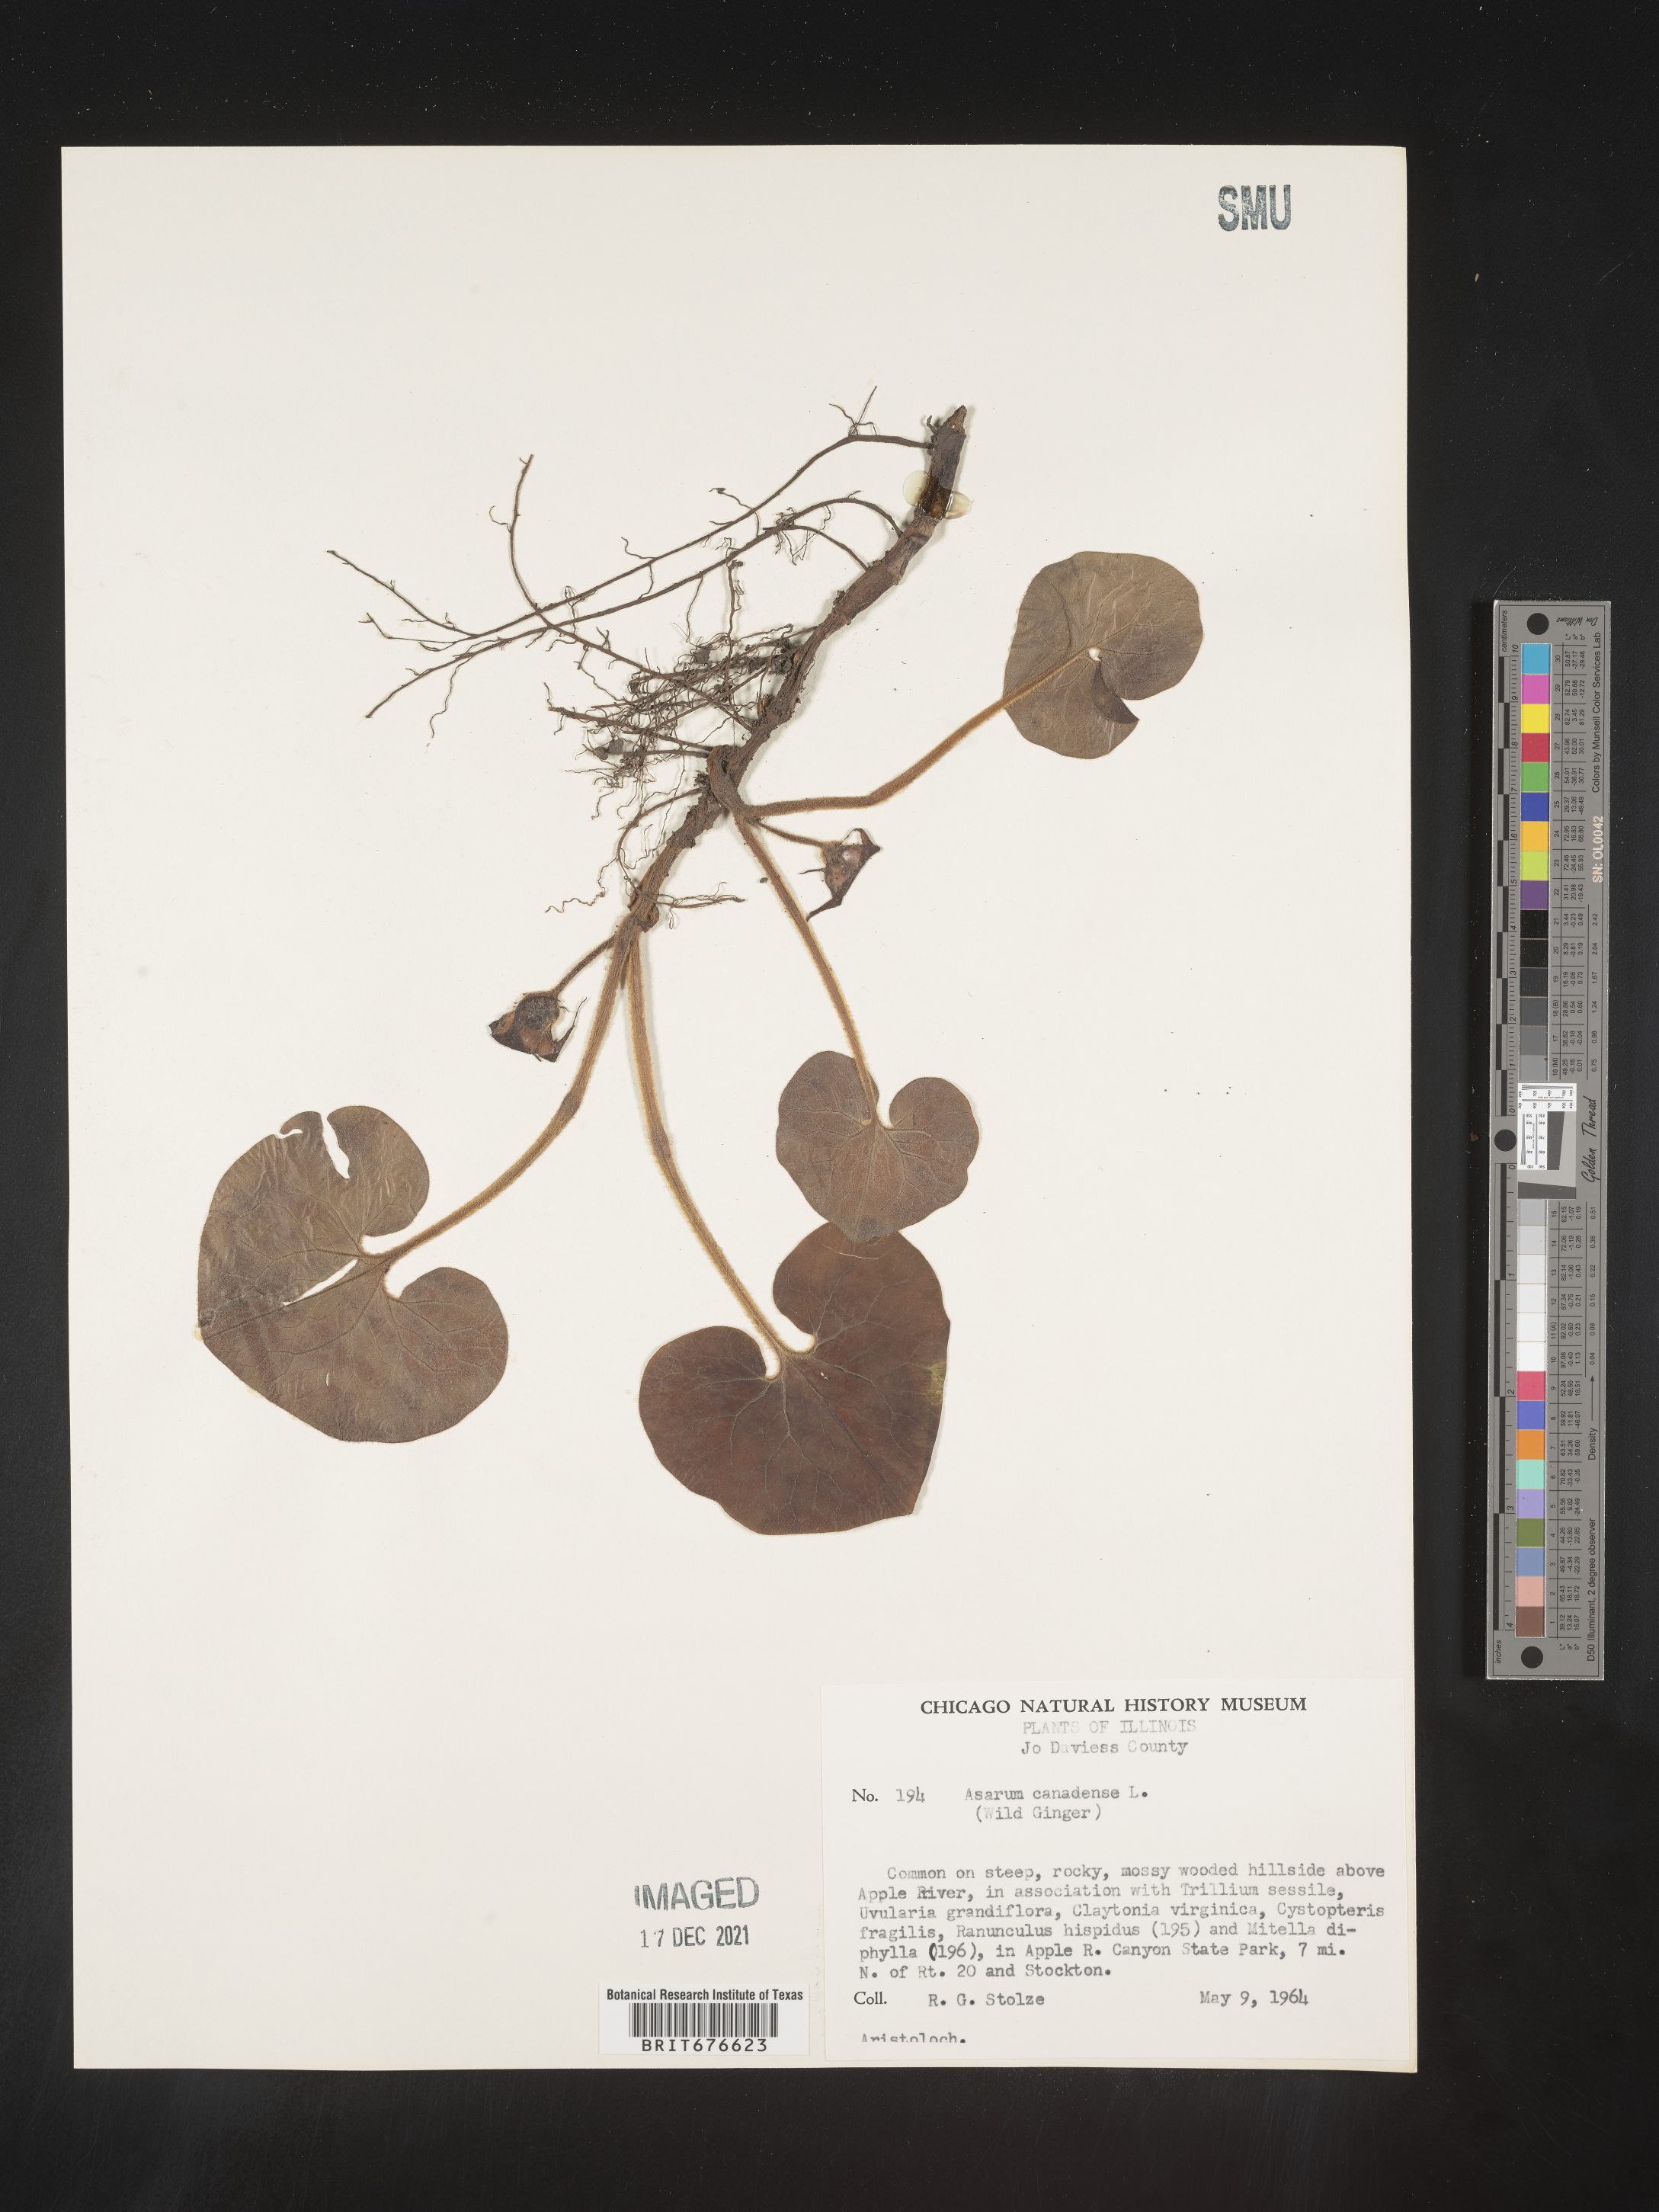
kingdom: Plantae
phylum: Tracheophyta
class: Magnoliopsida
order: Piperales
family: Aristolochiaceae
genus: Asarum
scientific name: Asarum canadense
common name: Wild ginger
